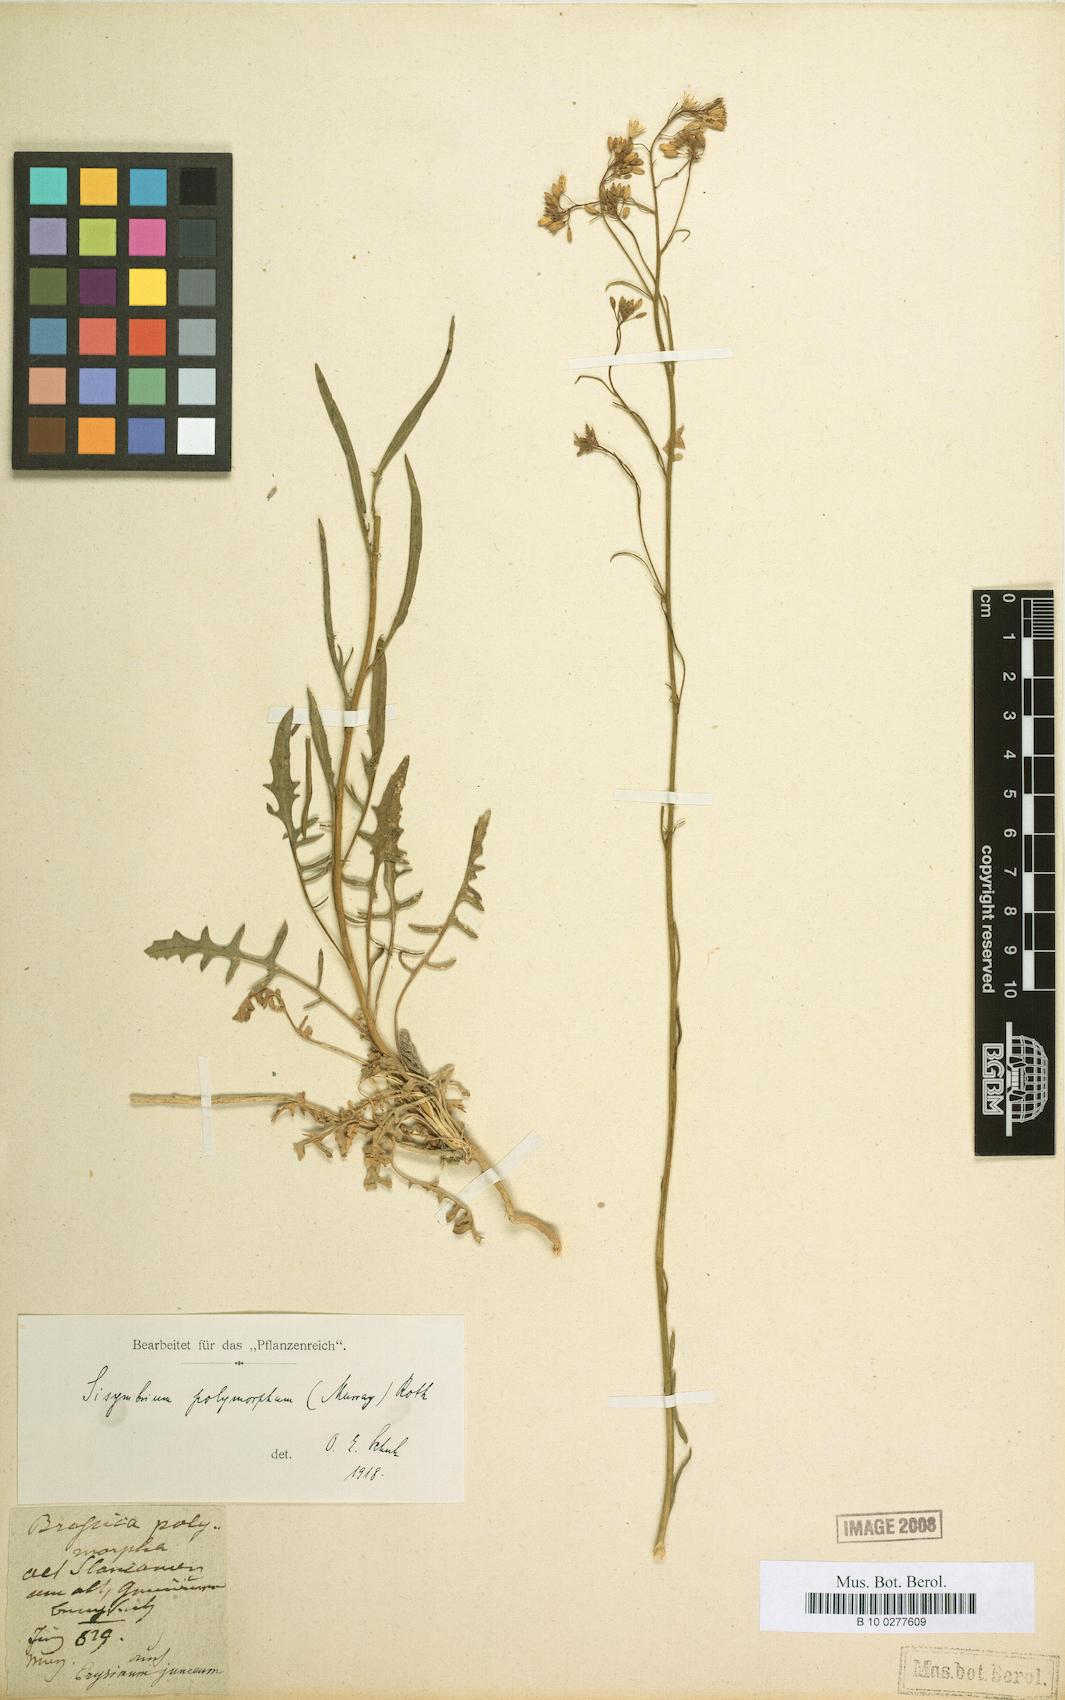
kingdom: Plantae
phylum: Tracheophyta
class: Magnoliopsida
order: Brassicales
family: Brassicaceae
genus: Sisymbrium
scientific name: Sisymbrium polymorphum
